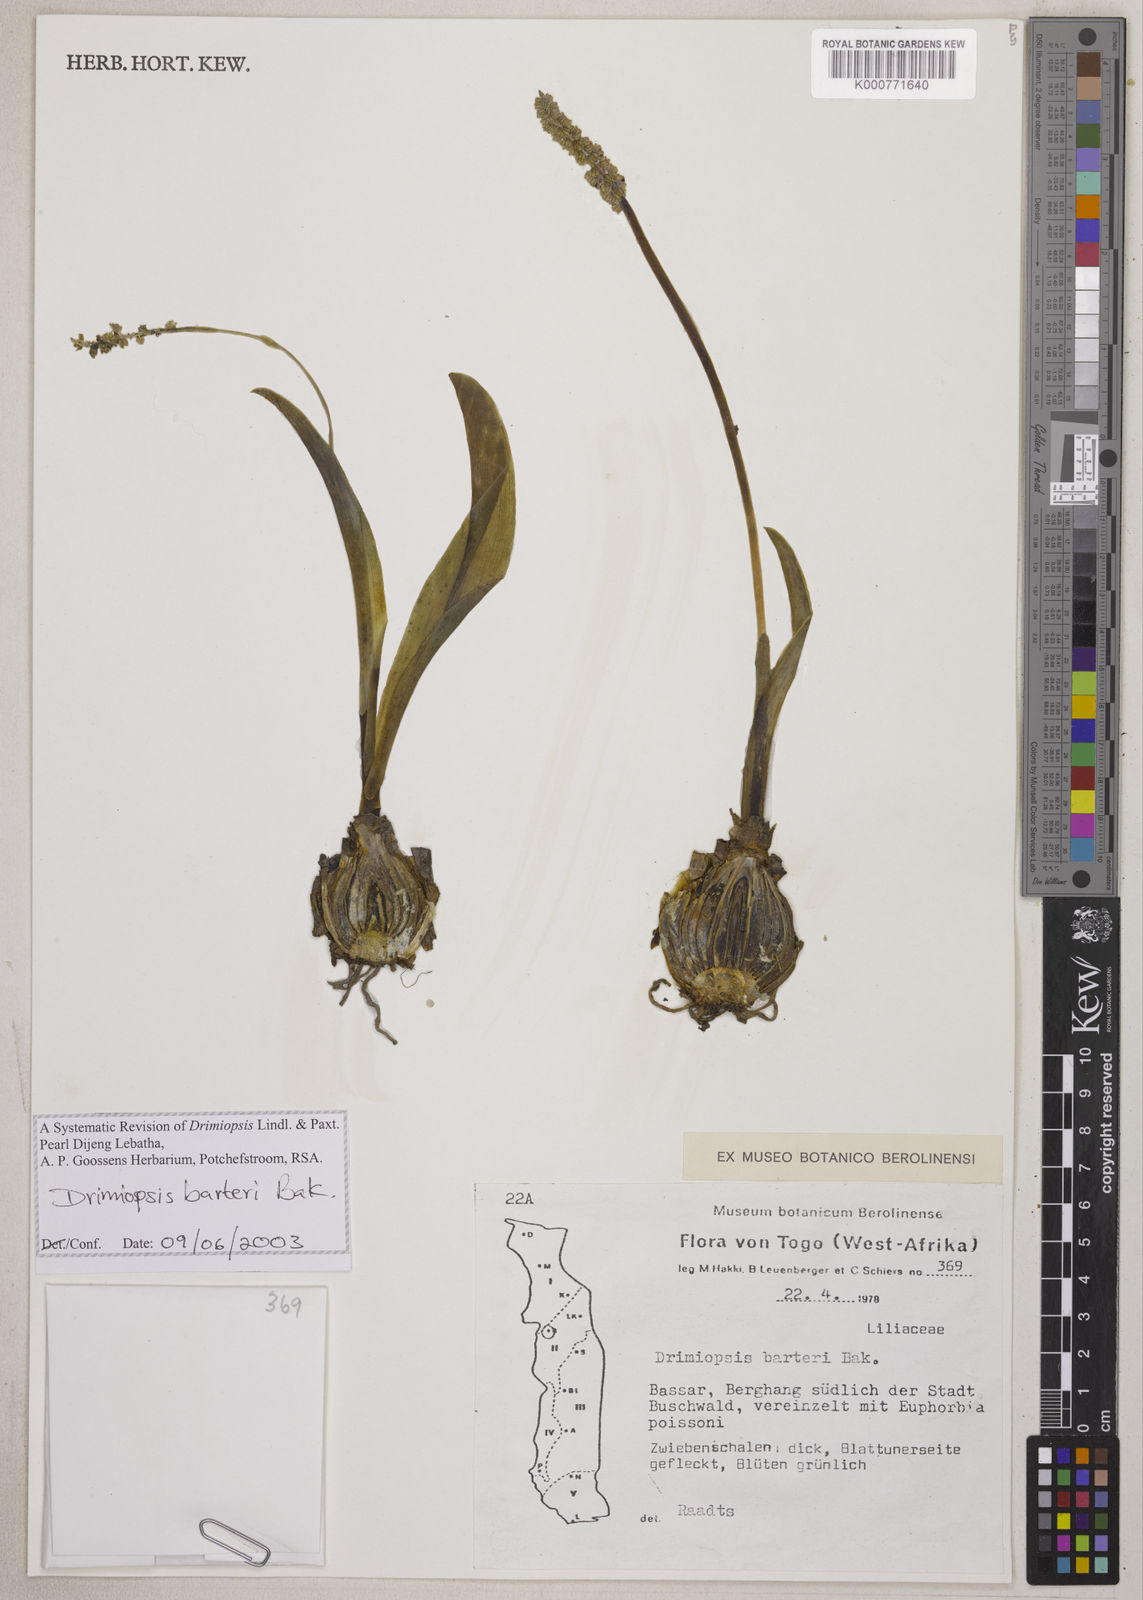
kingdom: Plantae
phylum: Tracheophyta
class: Liliopsida
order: Asparagales
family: Asparagaceae
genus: Drimiopsis
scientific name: Drimiopsis barteri
